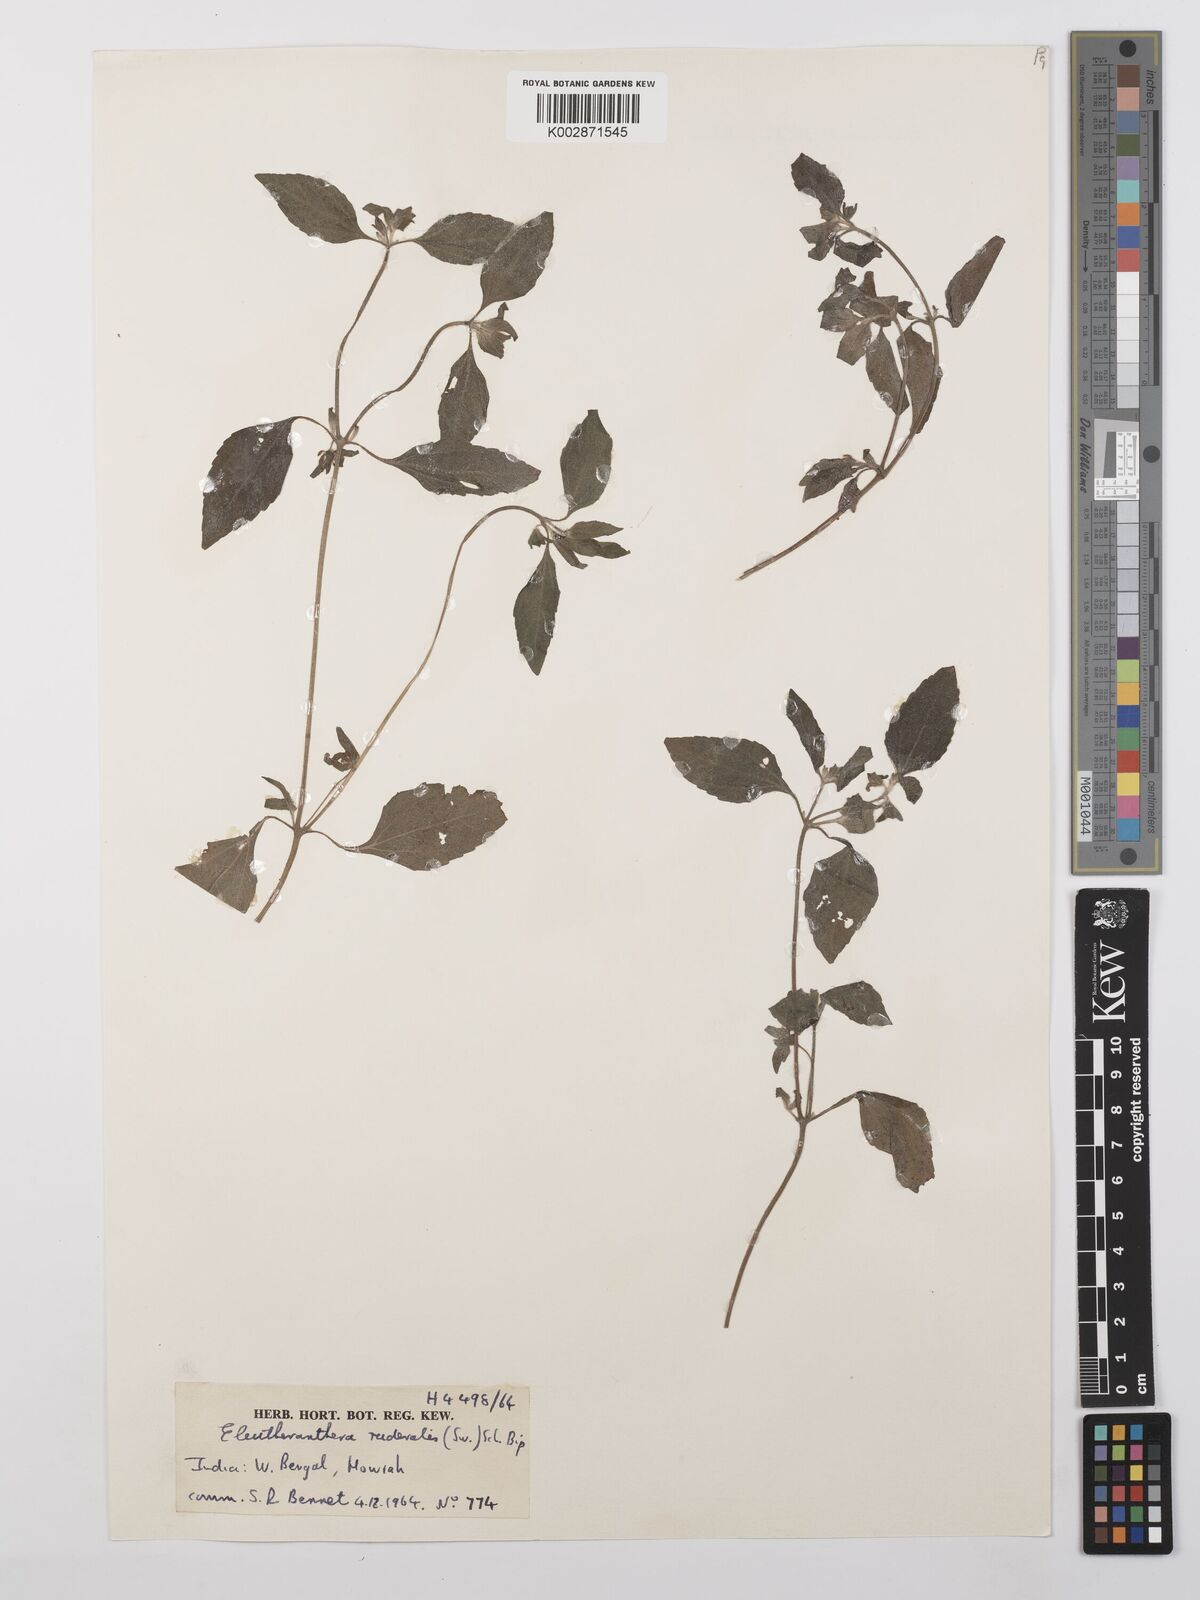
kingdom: Plantae
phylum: Tracheophyta
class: Magnoliopsida
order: Asterales
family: Asteraceae
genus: Eleutheranthera
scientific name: Eleutheranthera ruderalis
